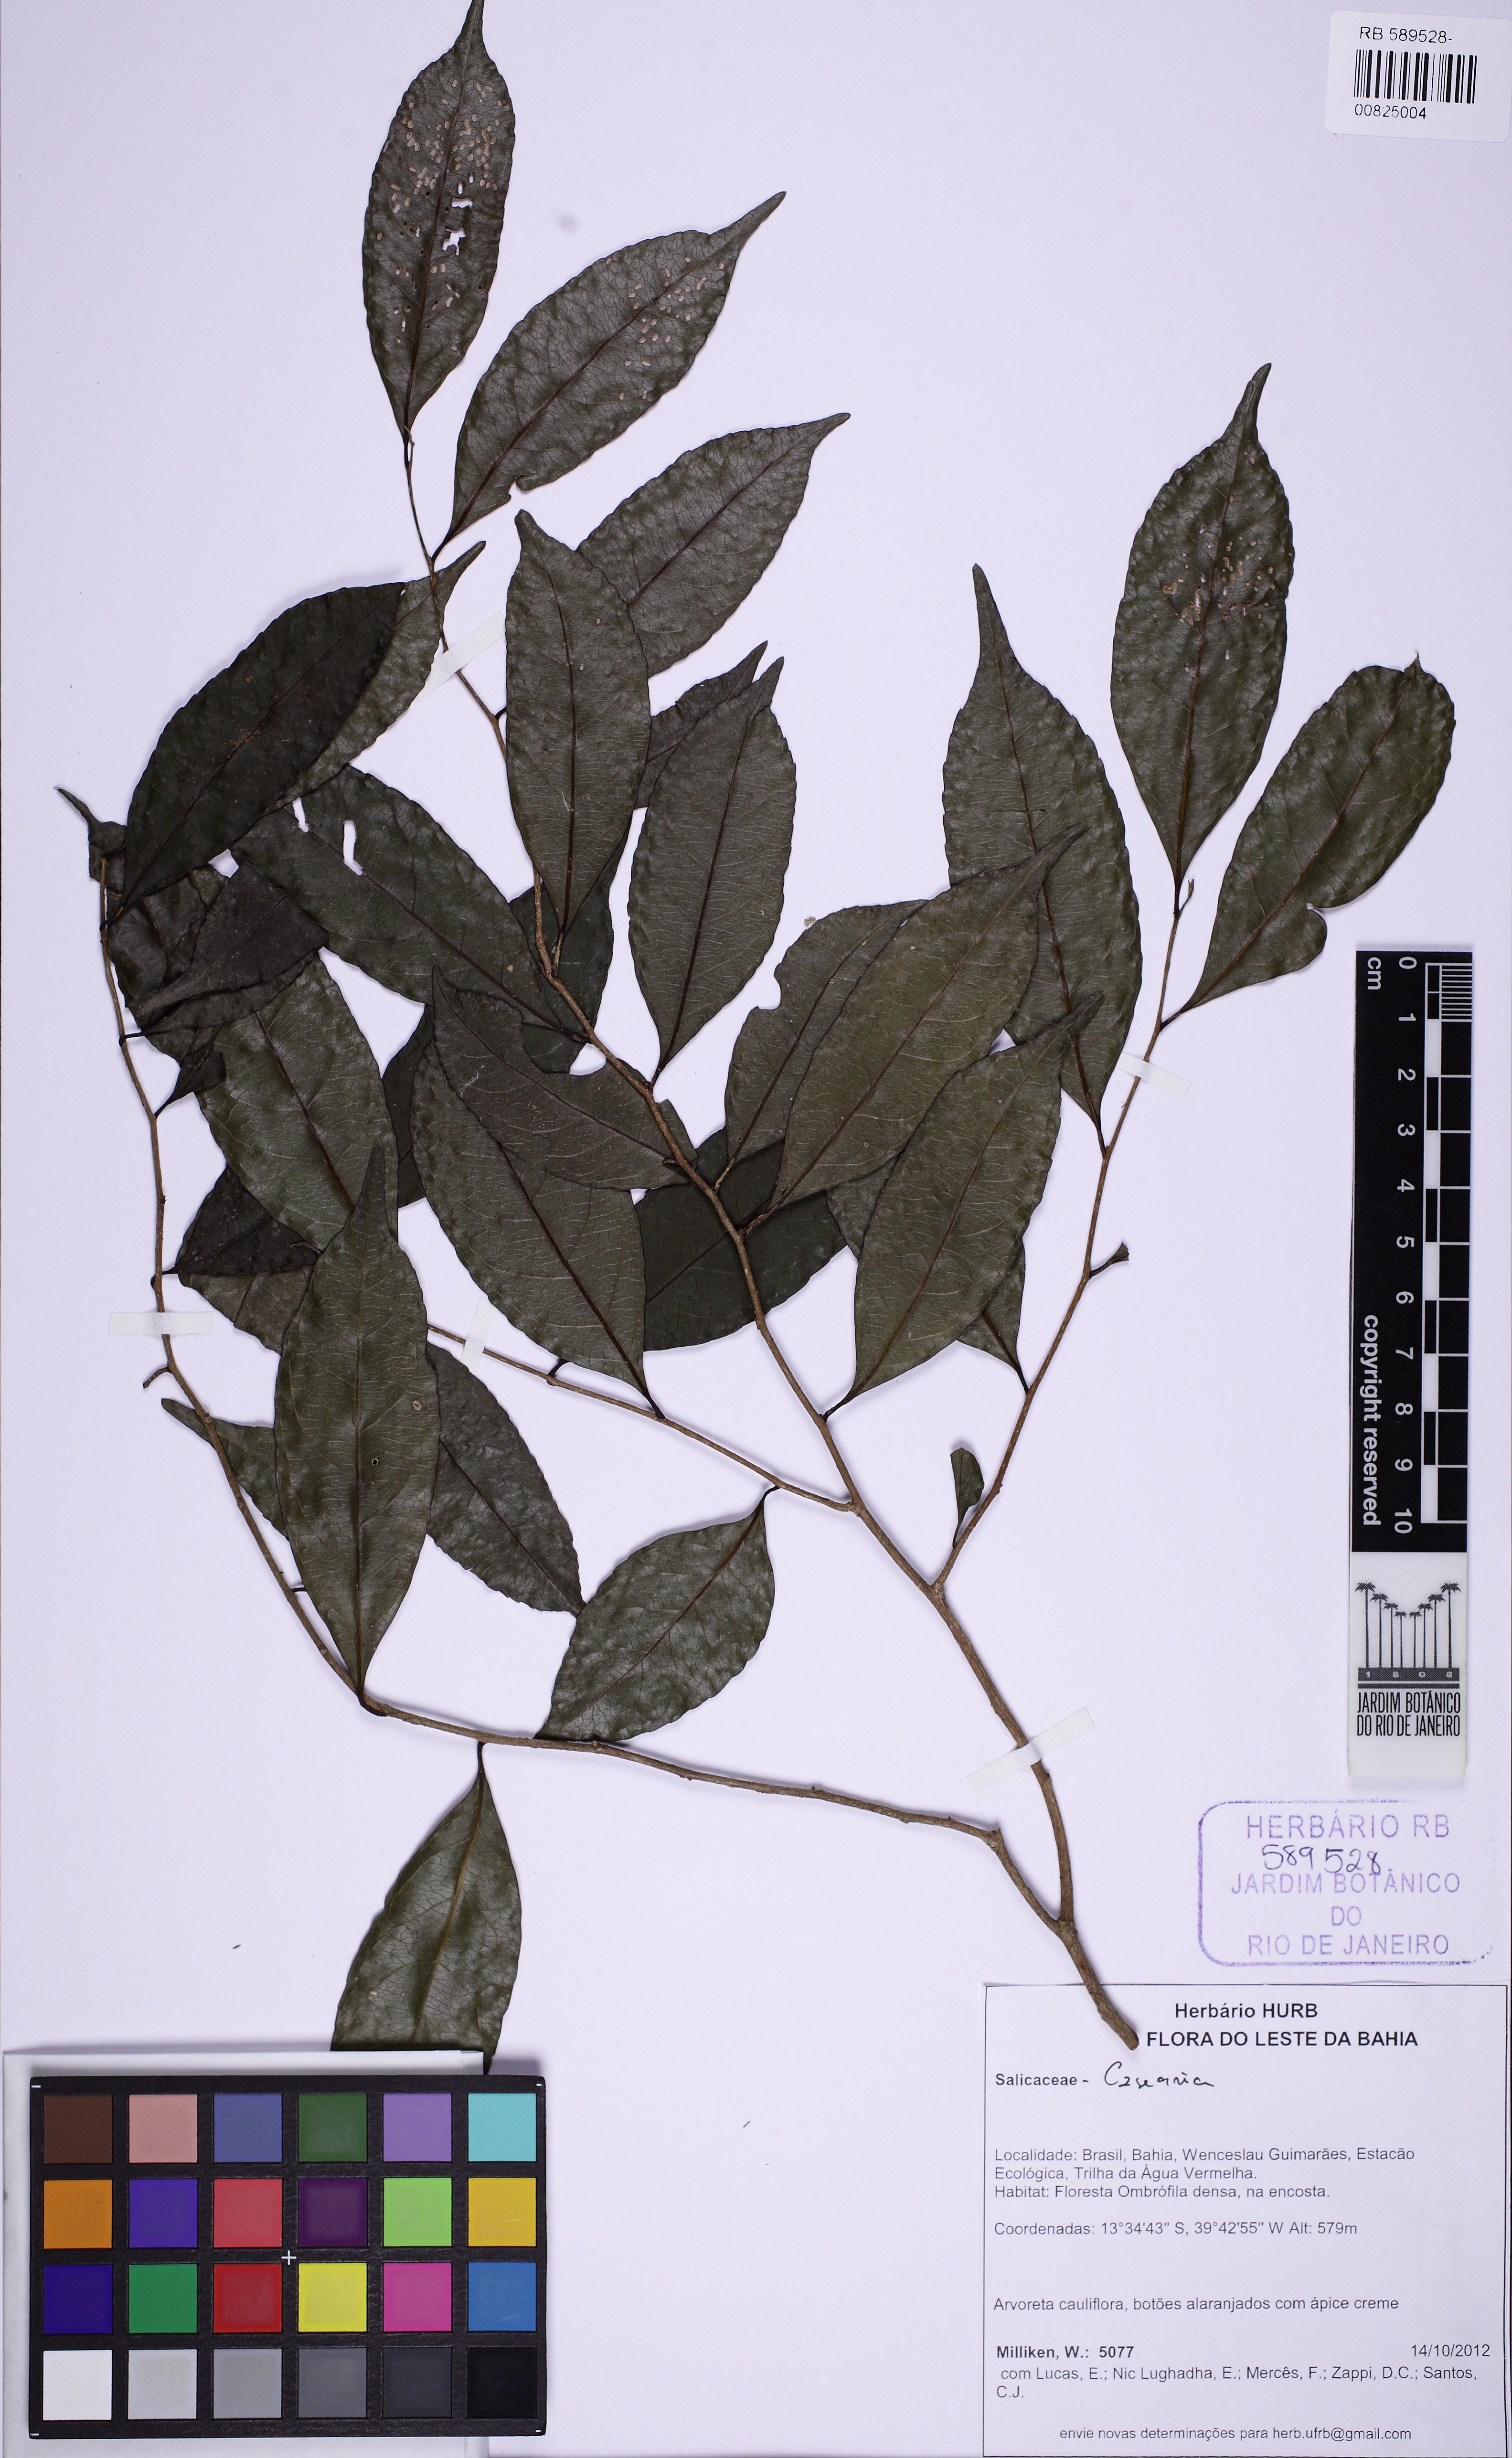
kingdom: Plantae
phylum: Tracheophyta
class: Magnoliopsida
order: Malpighiales
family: Salicaceae
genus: Casearia
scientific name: Casearia
